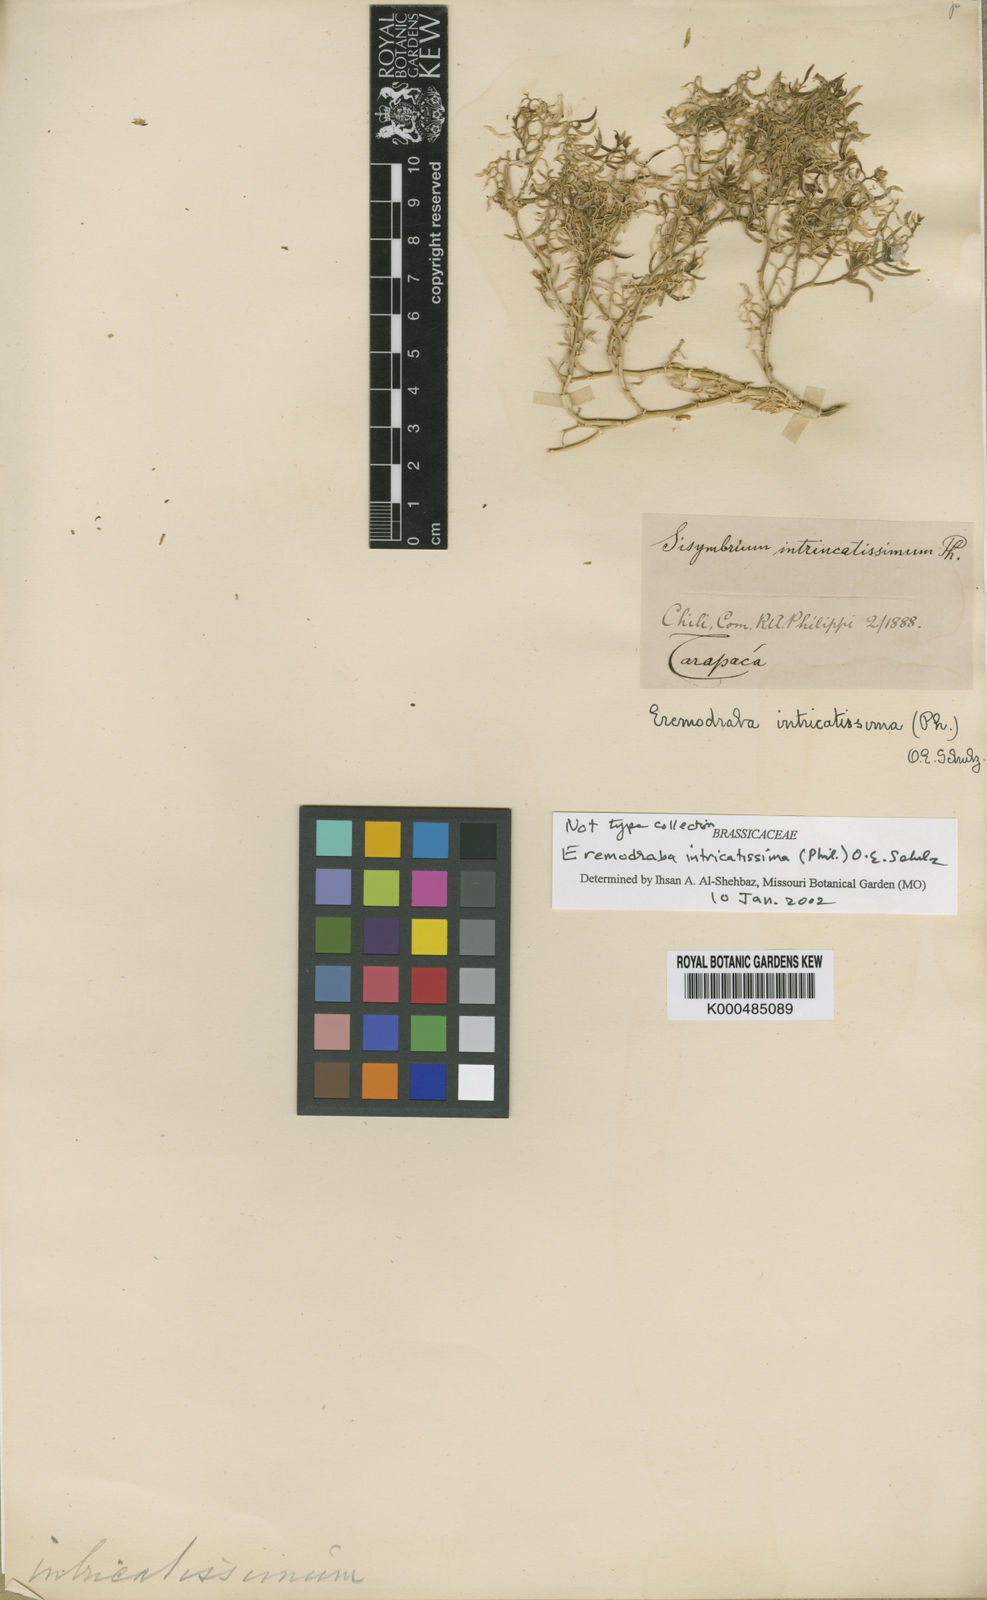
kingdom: Plantae
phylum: Tracheophyta
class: Magnoliopsida
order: Brassicales
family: Brassicaceae
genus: Neuontobotrys
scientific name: Neuontobotrys intricatissima
